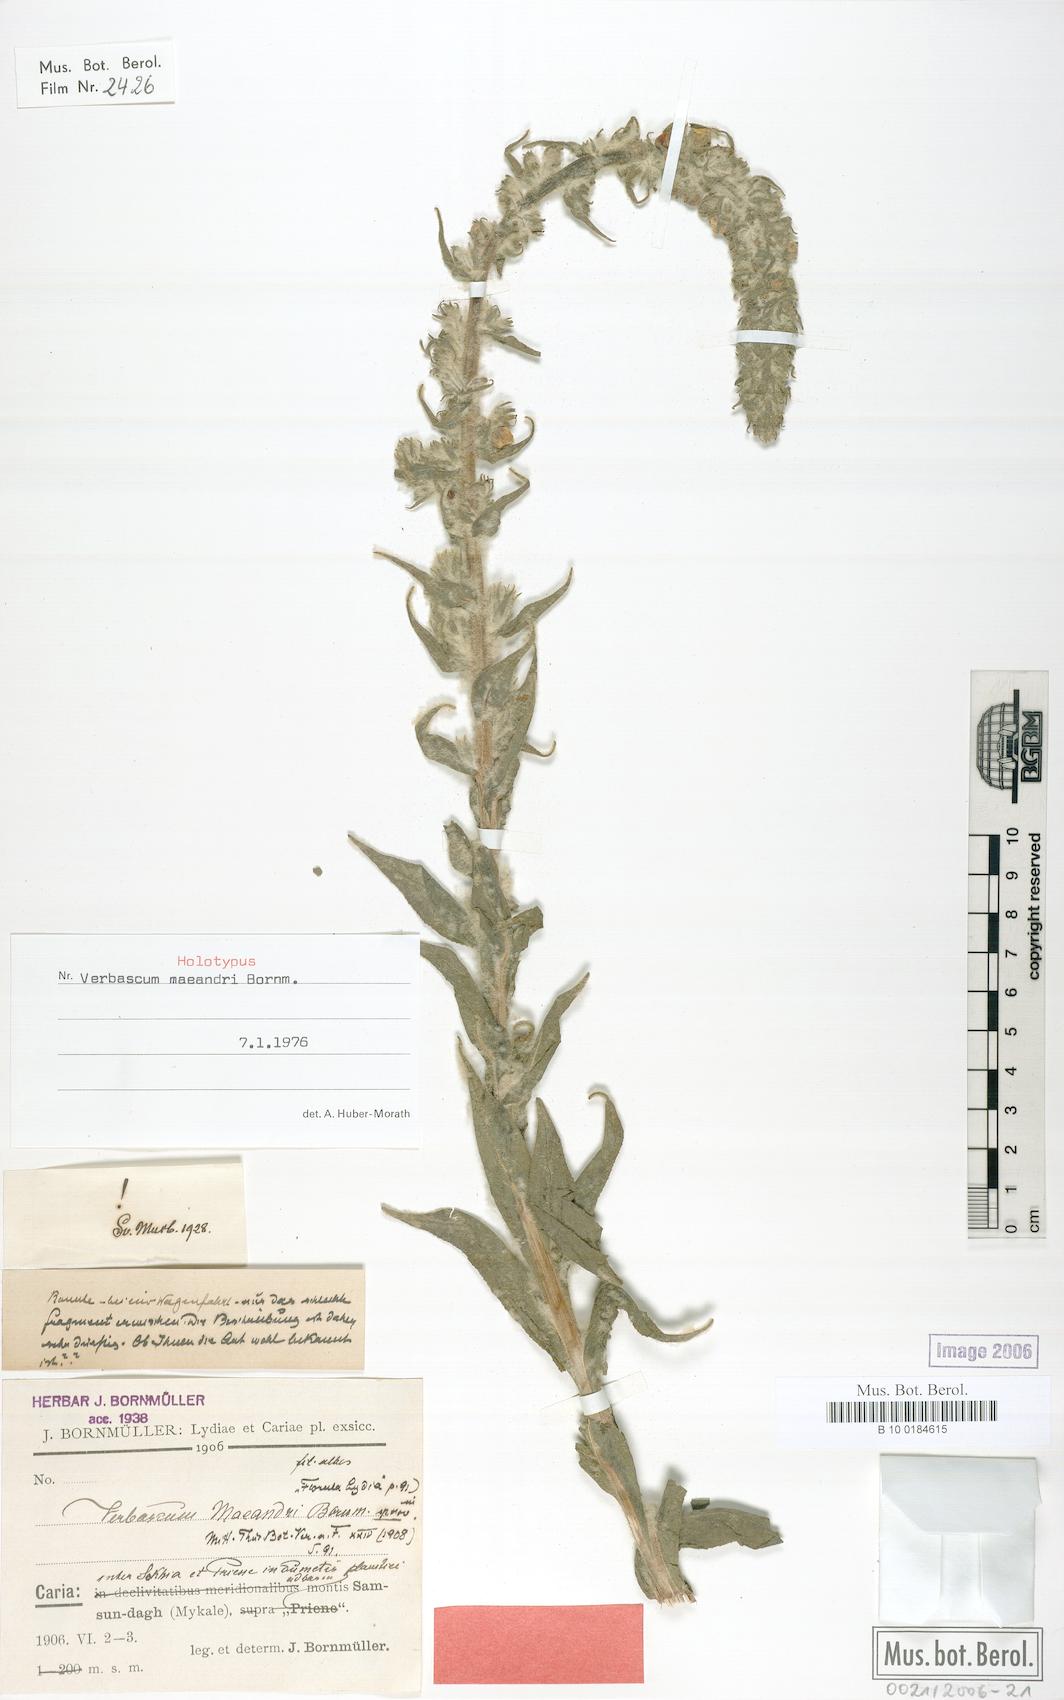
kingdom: Plantae
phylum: Tracheophyta
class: Magnoliopsida
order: Lamiales
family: Scrophulariaceae
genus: Verbascum
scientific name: Verbascum maeandri
